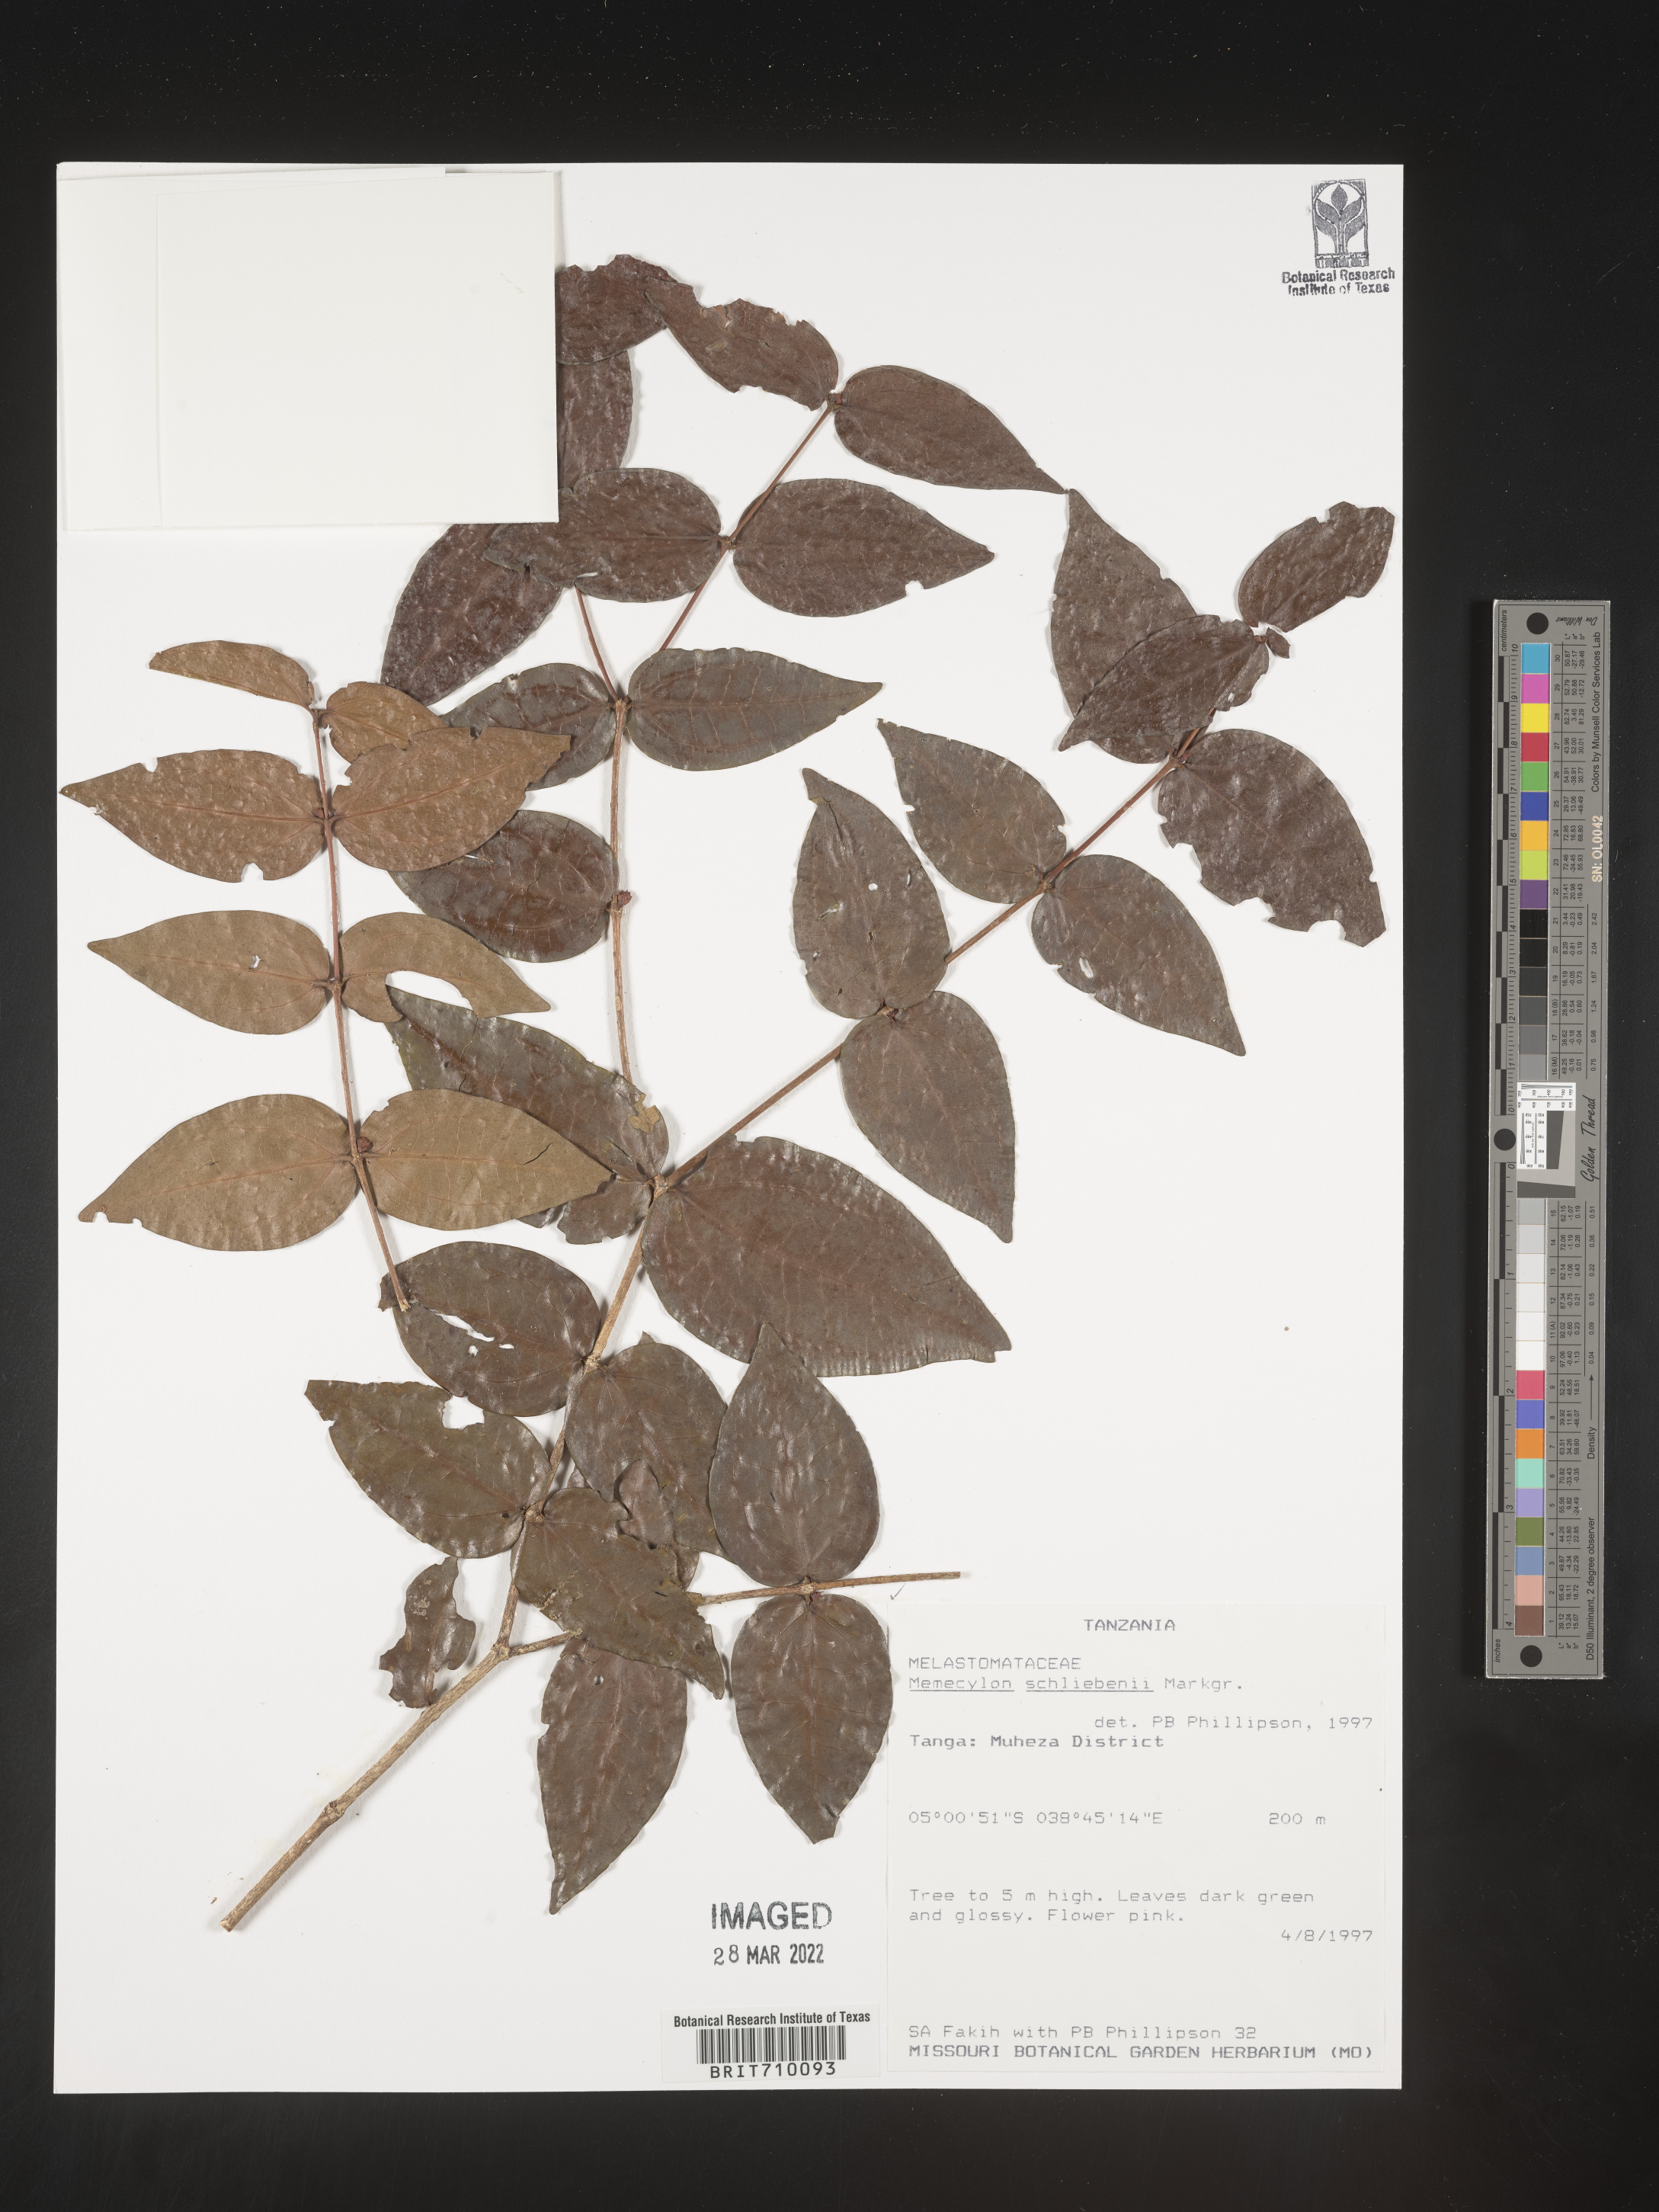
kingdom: Plantae
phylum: Tracheophyta
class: Magnoliopsida
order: Myrtales
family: Melastomataceae
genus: Memecylon
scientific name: Memecylon
